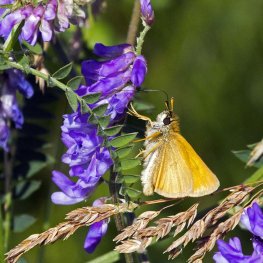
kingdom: Animalia
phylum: Arthropoda
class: Insecta
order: Lepidoptera
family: Hesperiidae
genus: Thymelicus
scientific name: Thymelicus lineola
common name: European Skipper
